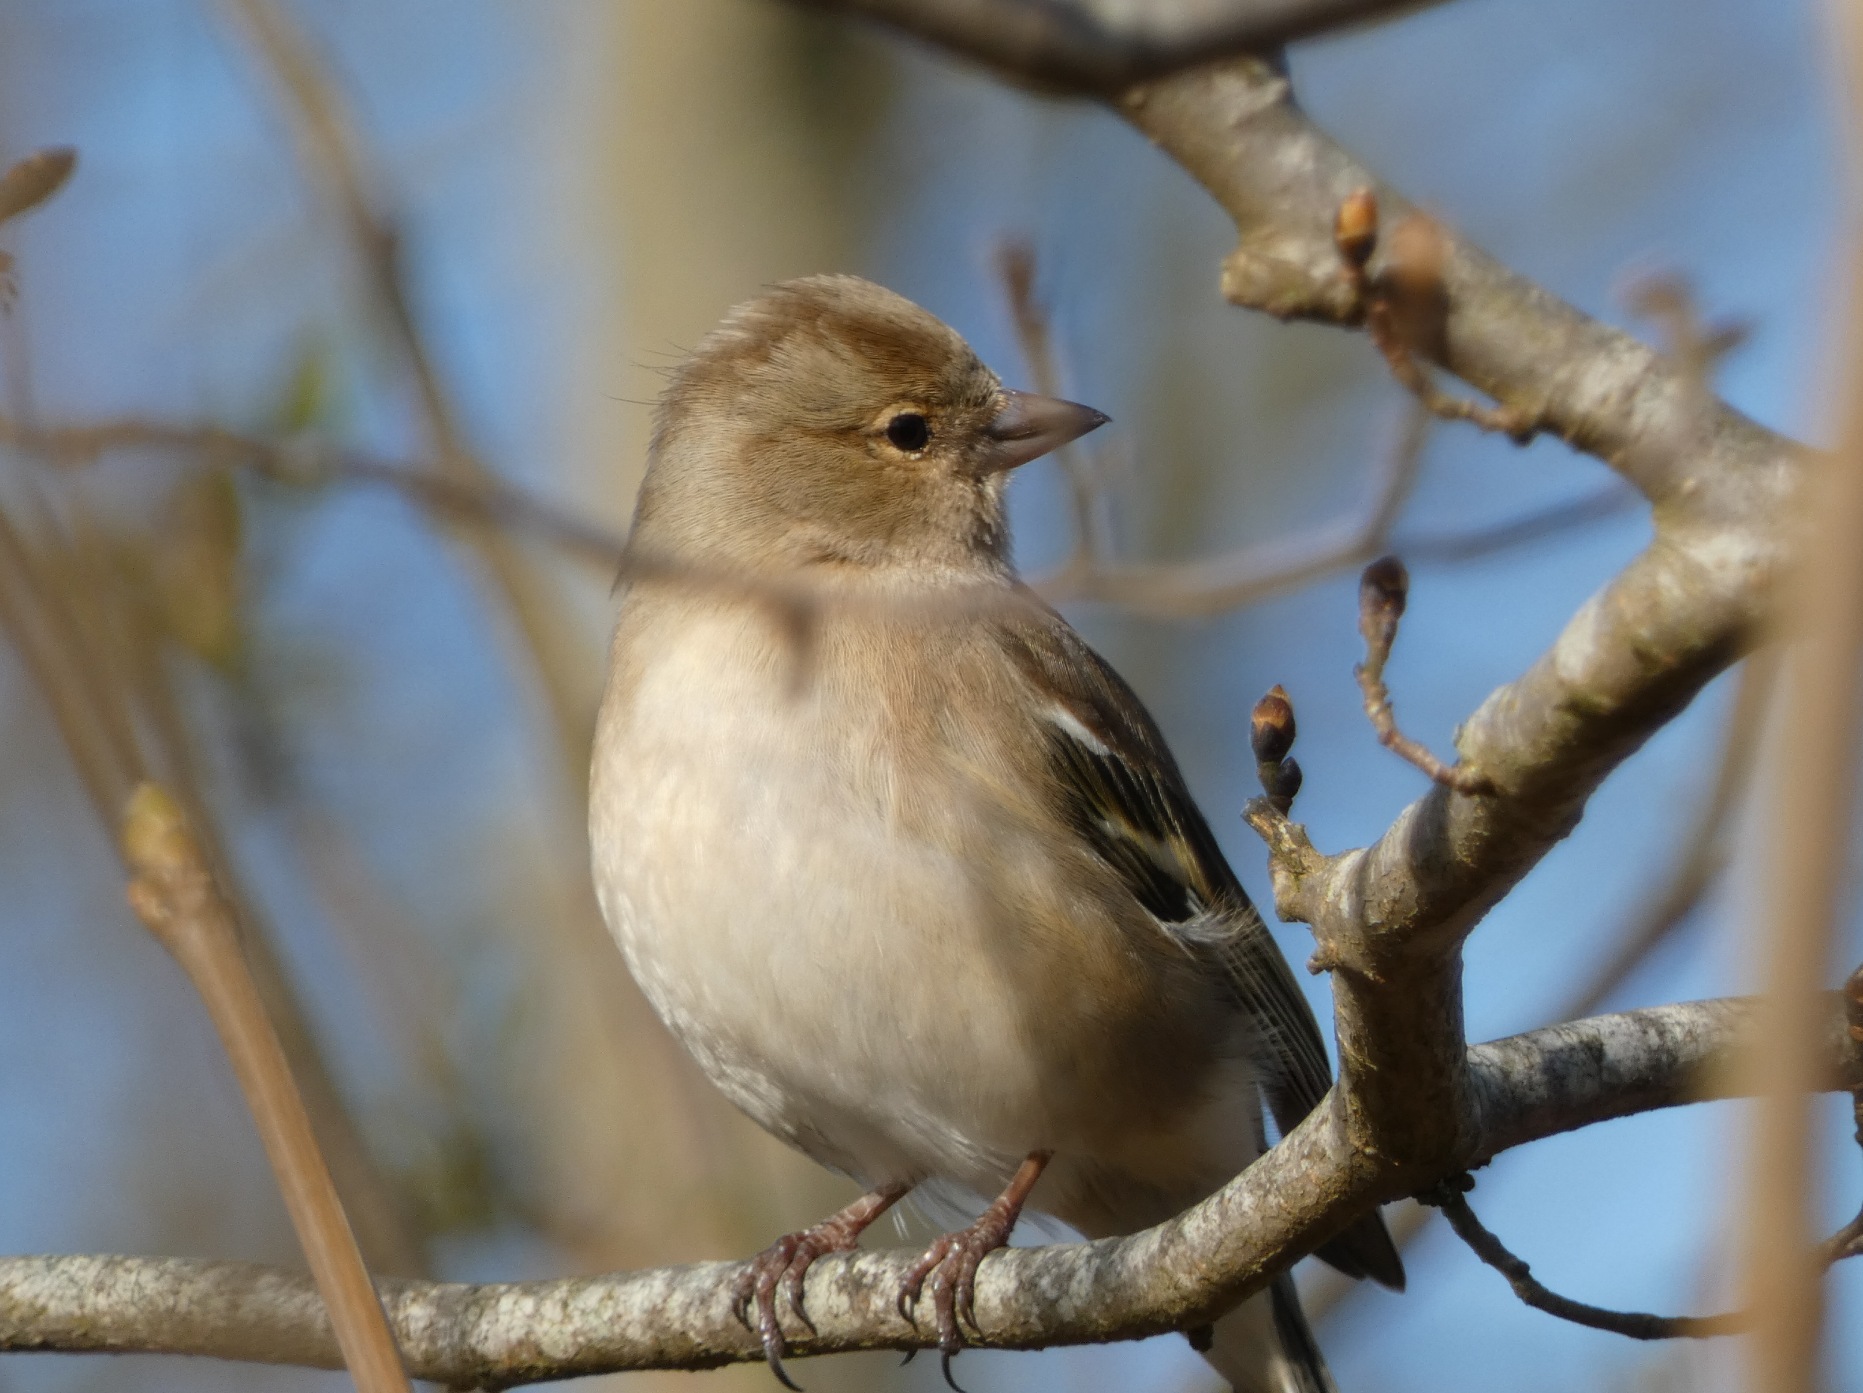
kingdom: Animalia
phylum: Chordata
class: Aves
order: Passeriformes
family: Fringillidae
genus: Fringilla
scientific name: Fringilla coelebs
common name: Bogfinke
